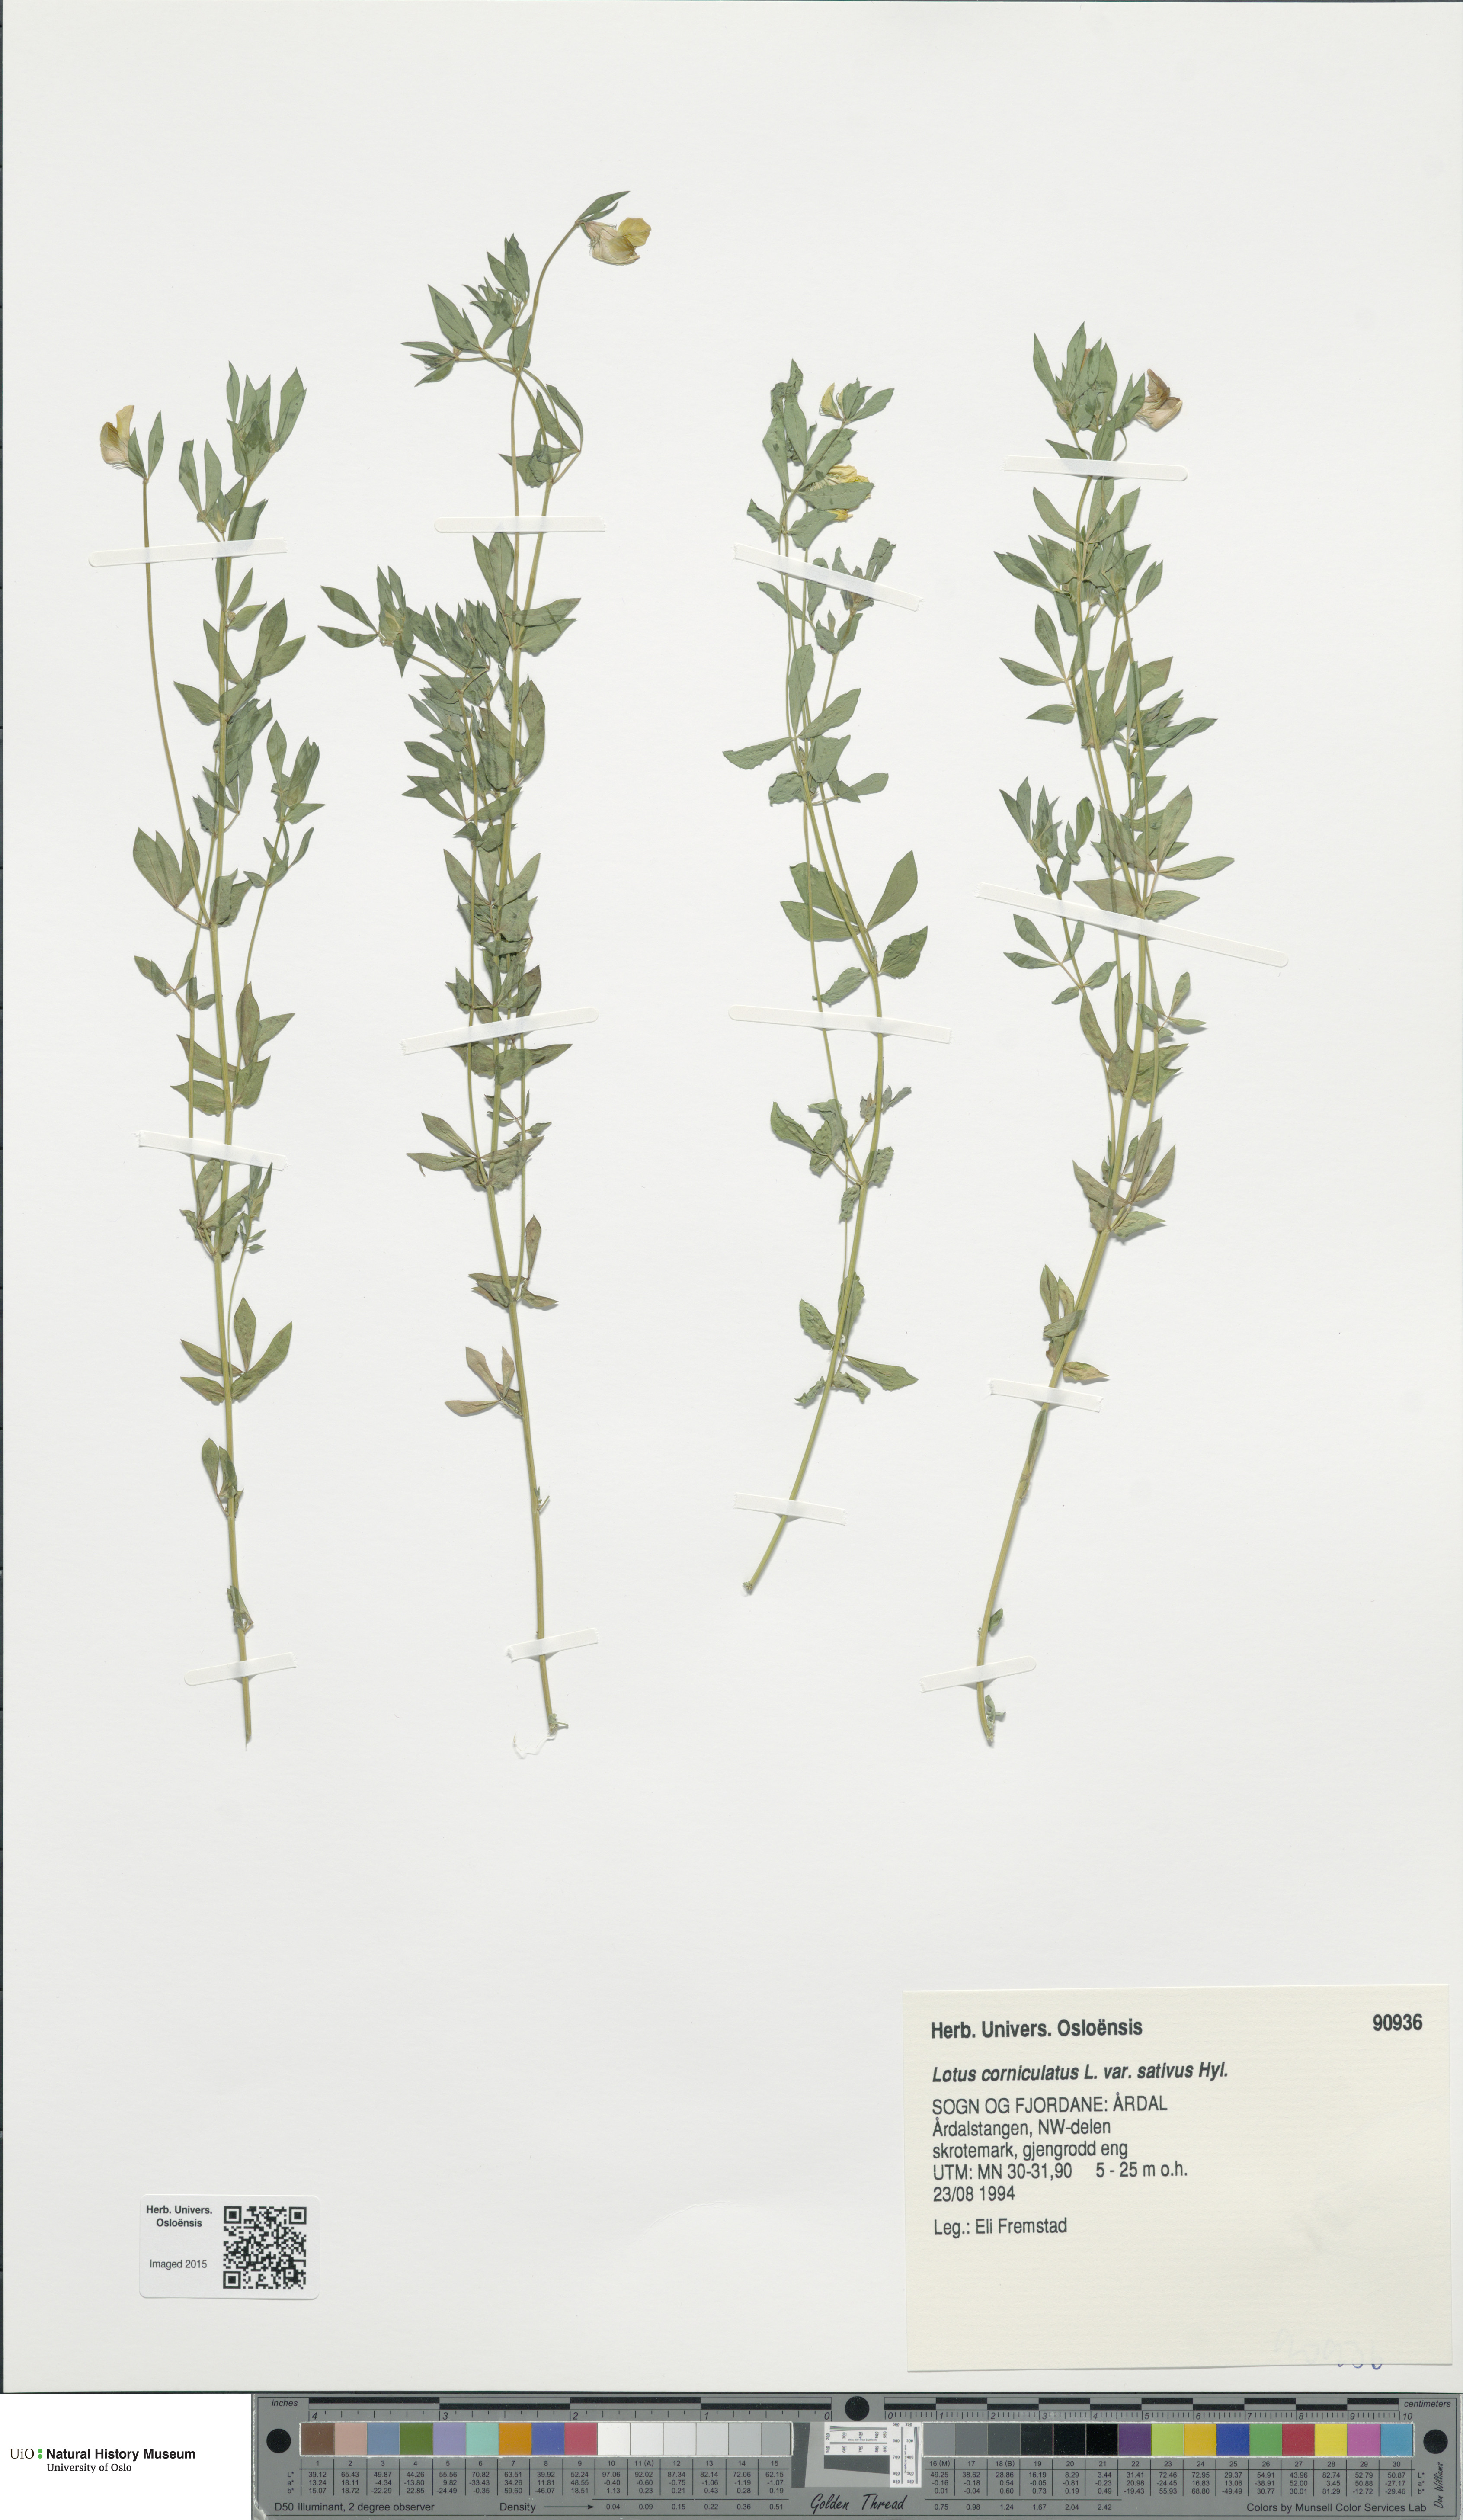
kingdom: Plantae
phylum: Tracheophyta
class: Magnoliopsida
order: Fabales
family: Fabaceae
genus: Lotus
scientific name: Lotus corniculatus
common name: Common bird's-foot-trefoil
